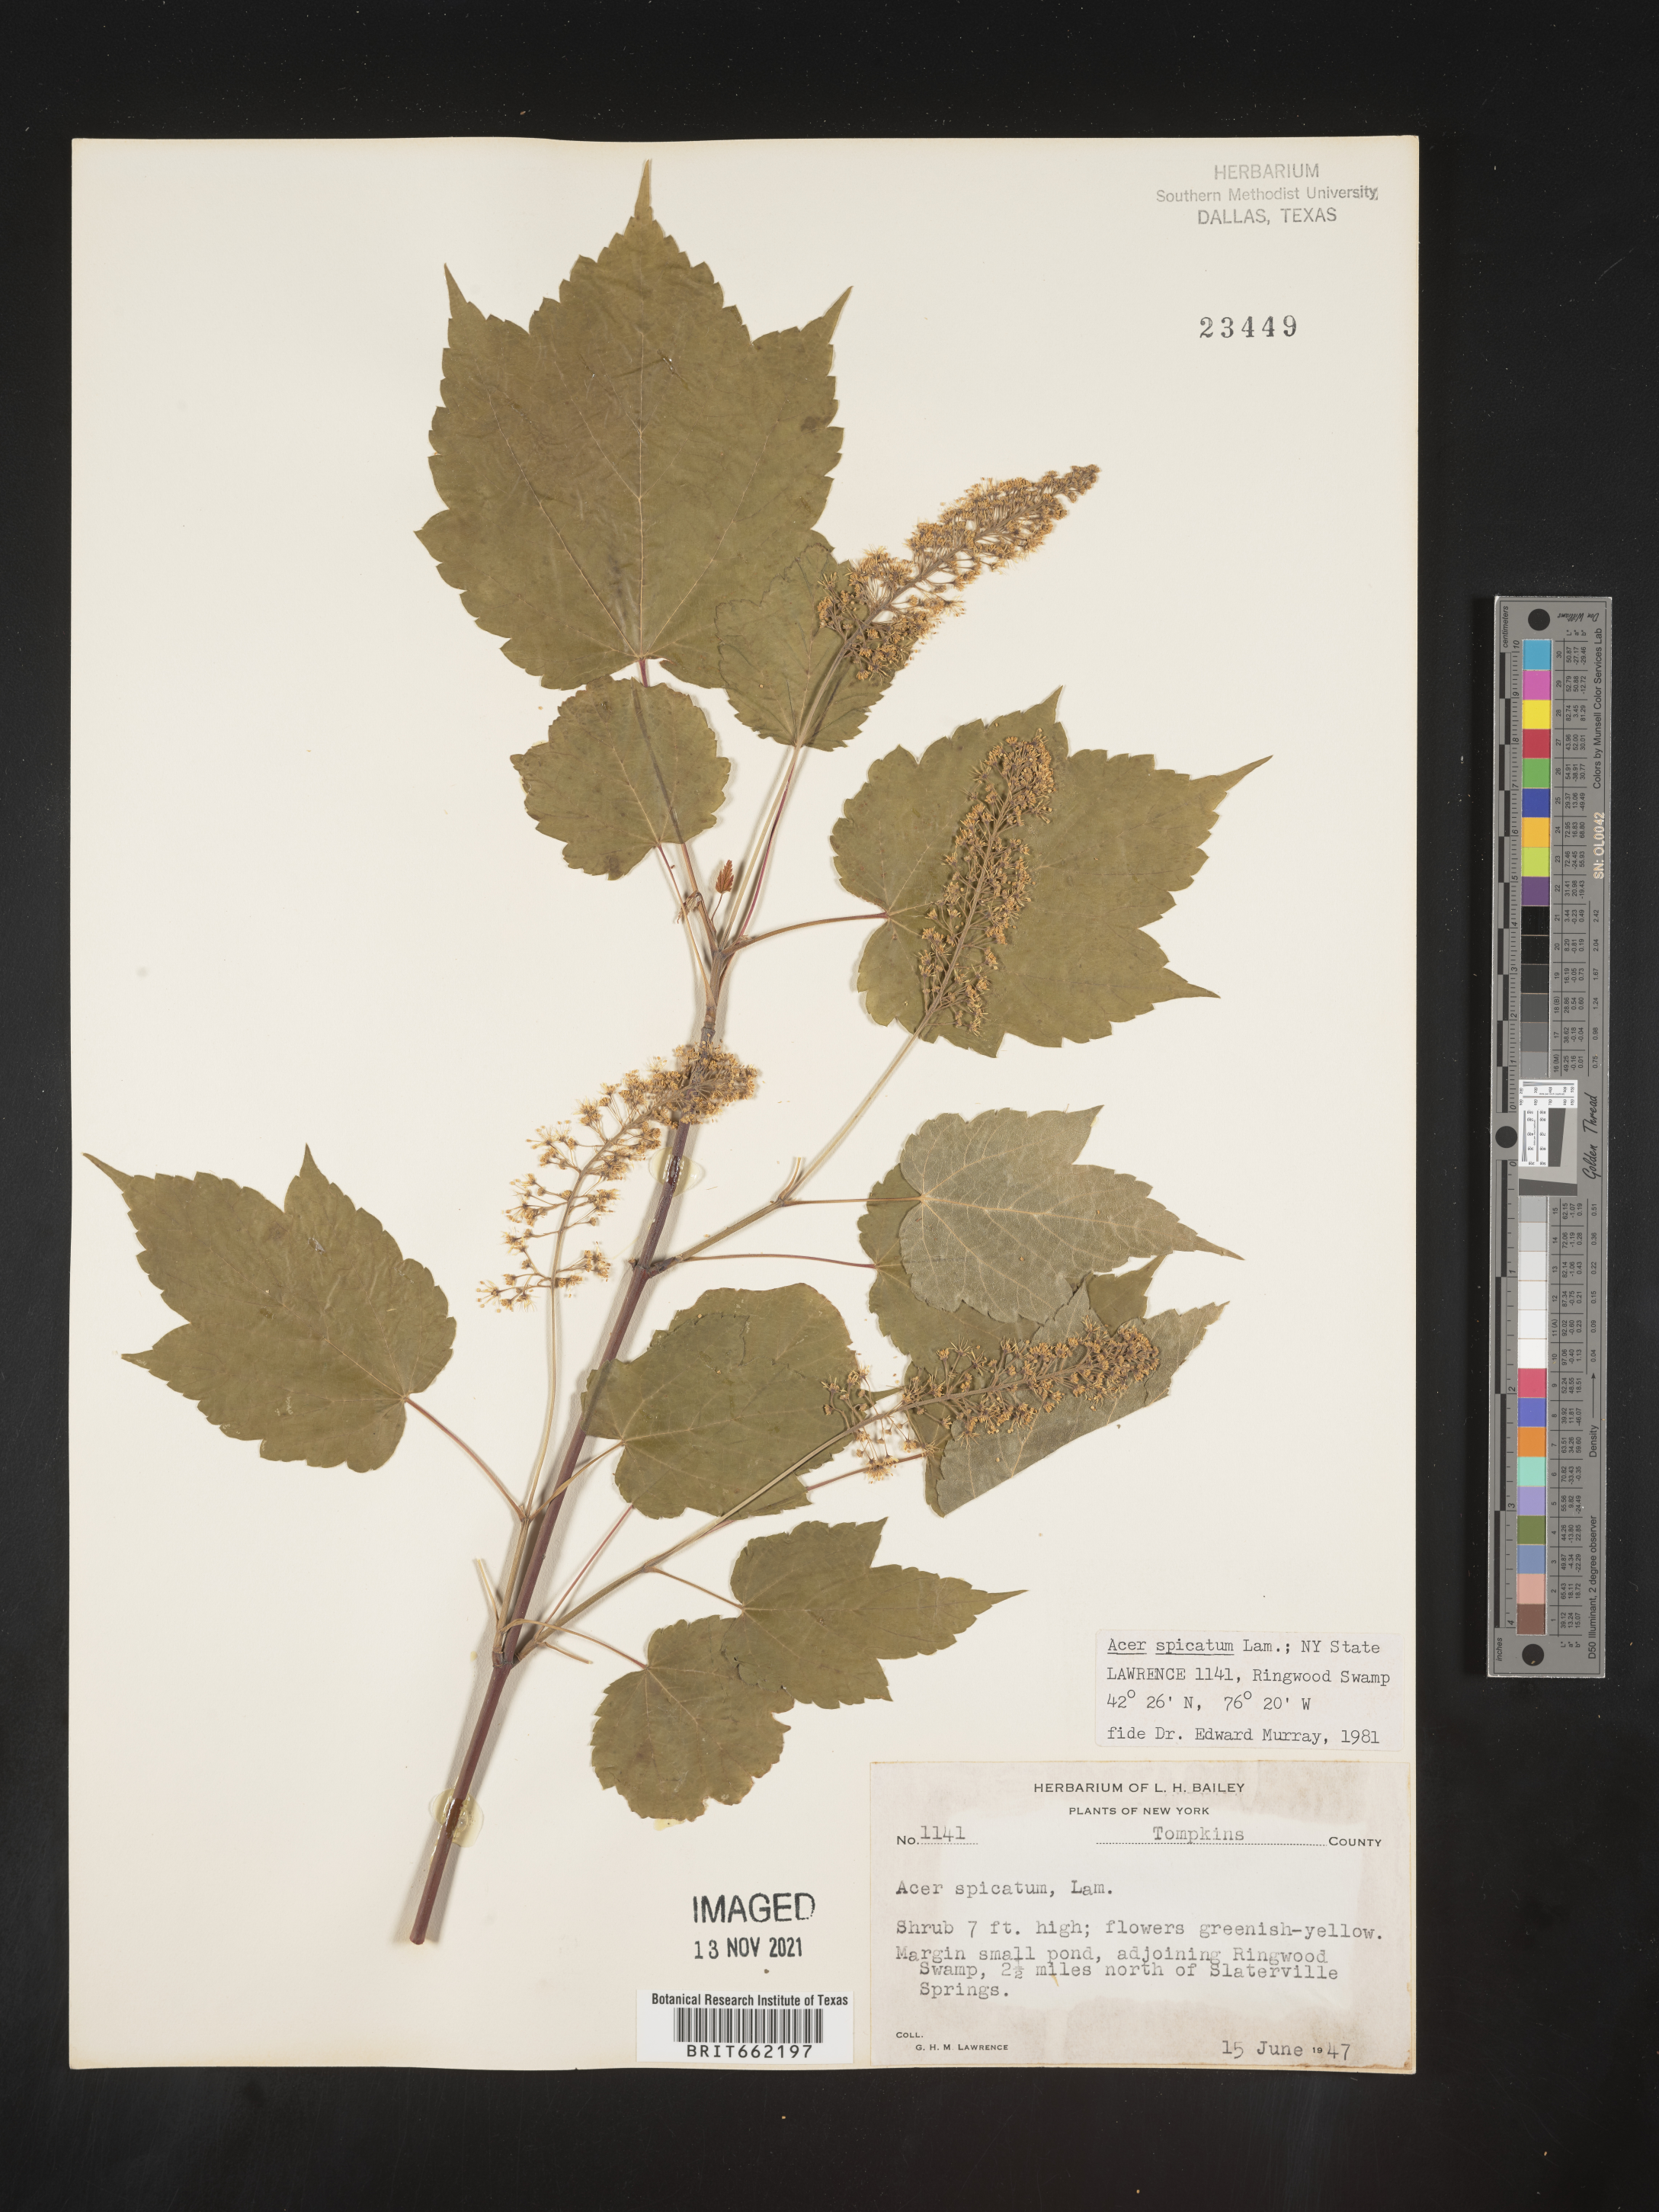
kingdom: Plantae
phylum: Tracheophyta
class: Magnoliopsida
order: Sapindales
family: Sapindaceae
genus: Acer
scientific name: Acer spicatum
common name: Mountain maple
